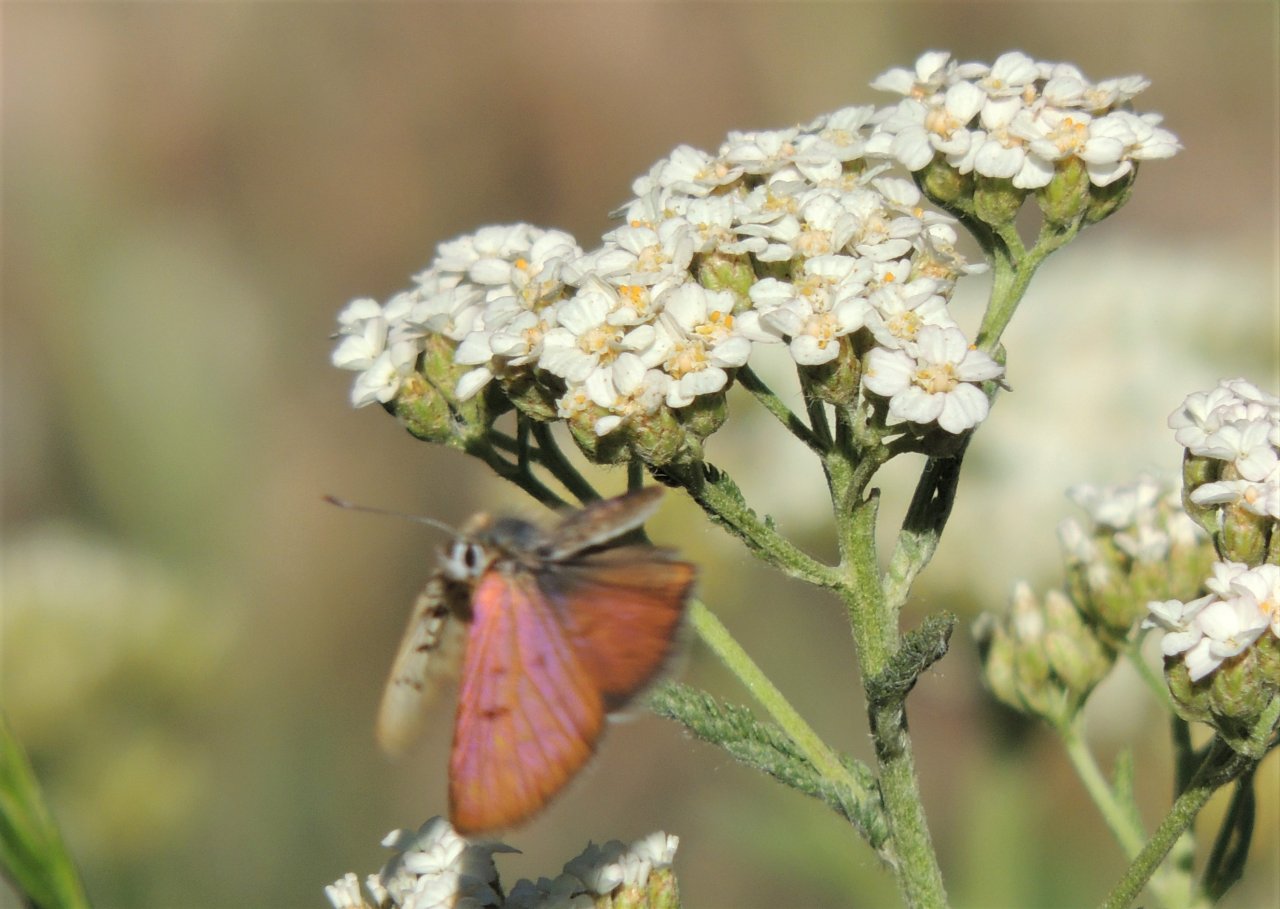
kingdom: Animalia
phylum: Arthropoda
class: Insecta
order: Lepidoptera
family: Sesiidae
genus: Sesia
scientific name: Sesia Lycaena helloides
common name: Purplish Copper
